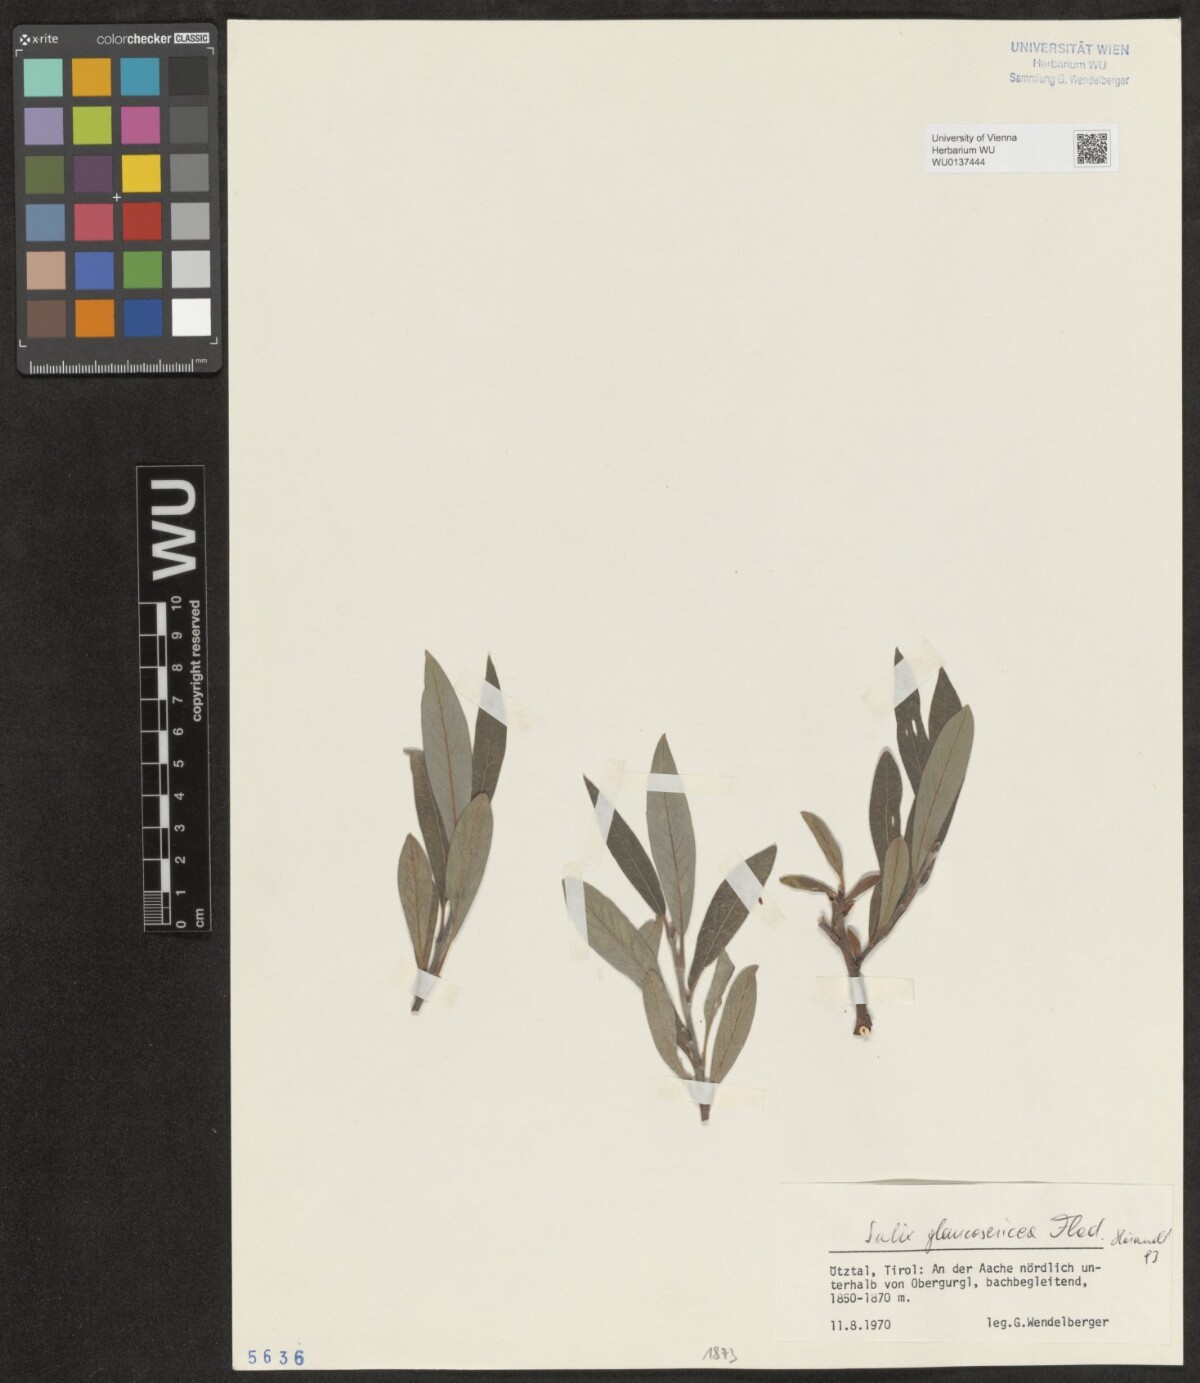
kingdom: Plantae
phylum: Tracheophyta
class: Magnoliopsida
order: Malpighiales
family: Salicaceae
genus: Salix
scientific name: Salix glaucosericea
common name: Alpine gray willow
